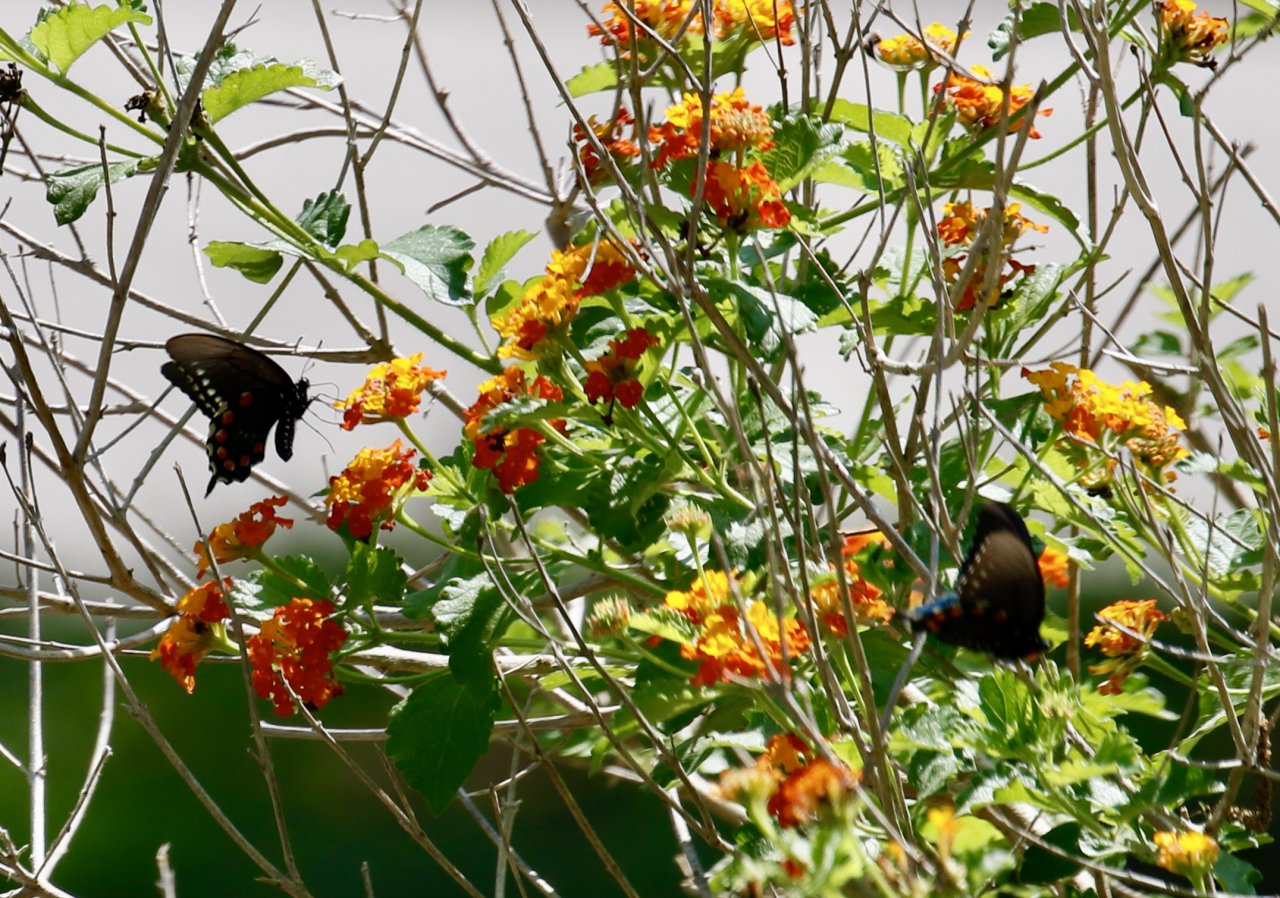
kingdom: Animalia
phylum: Arthropoda
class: Insecta
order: Lepidoptera
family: Papilionidae
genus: Battus
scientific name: Battus philenor
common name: Pipevine Swallowtail
